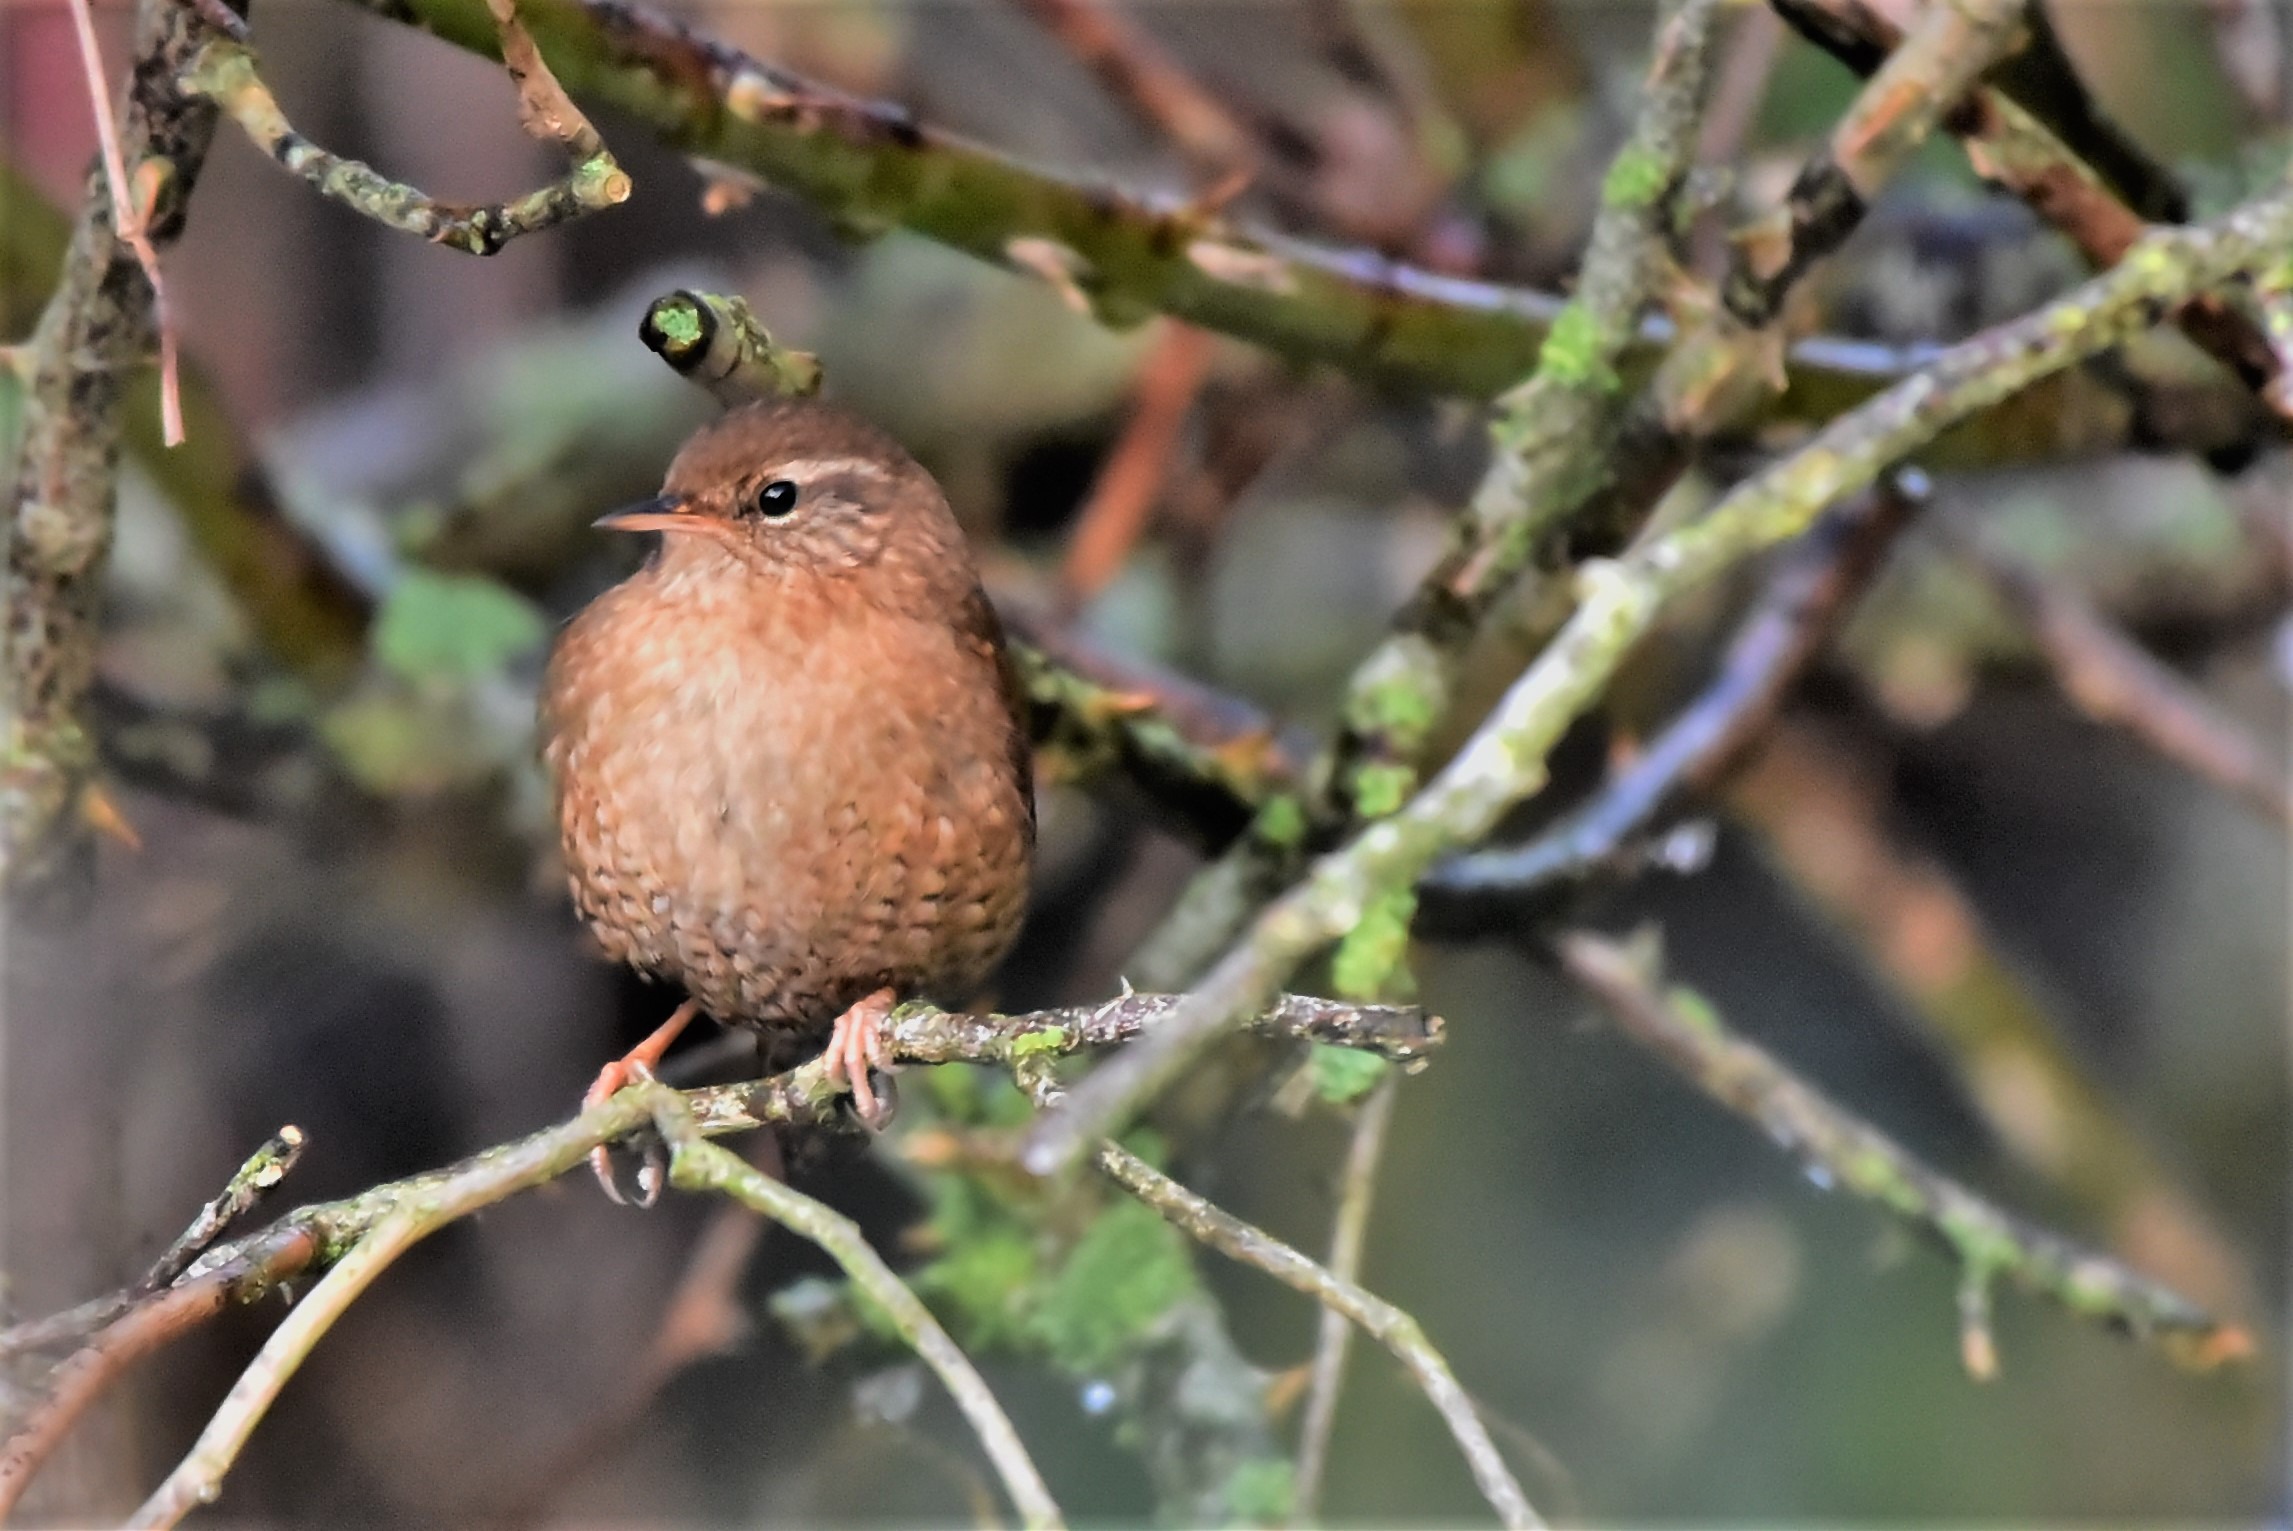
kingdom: Animalia
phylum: Chordata
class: Aves
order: Passeriformes
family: Troglodytidae
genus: Troglodytes
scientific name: Troglodytes troglodytes
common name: Gærdesmutte
